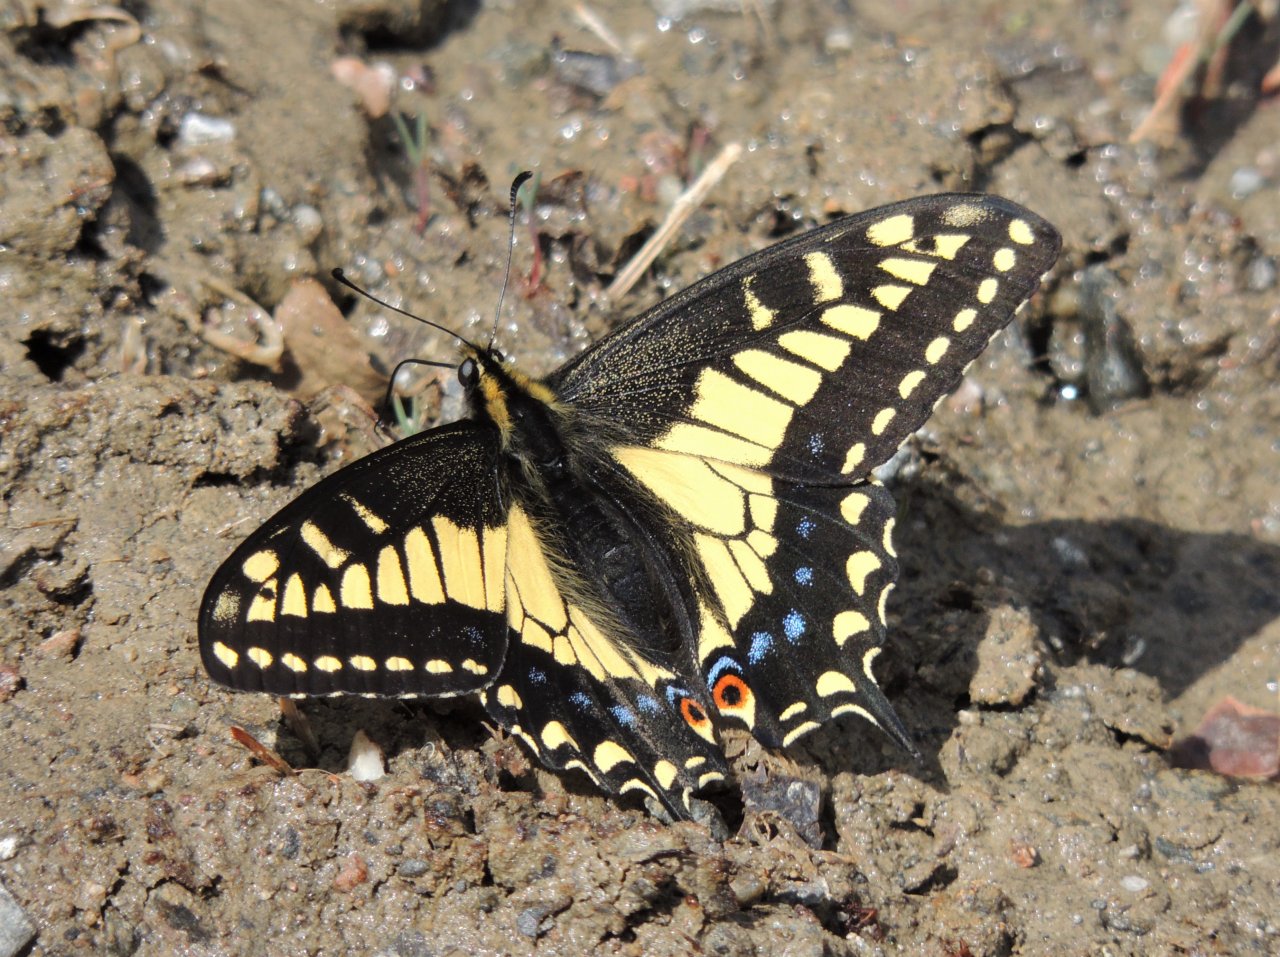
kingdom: Animalia
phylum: Arthropoda
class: Insecta
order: Lepidoptera
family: Papilionidae
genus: Papilio
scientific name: Papilio zelicaon
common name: Anise Swallowtail
